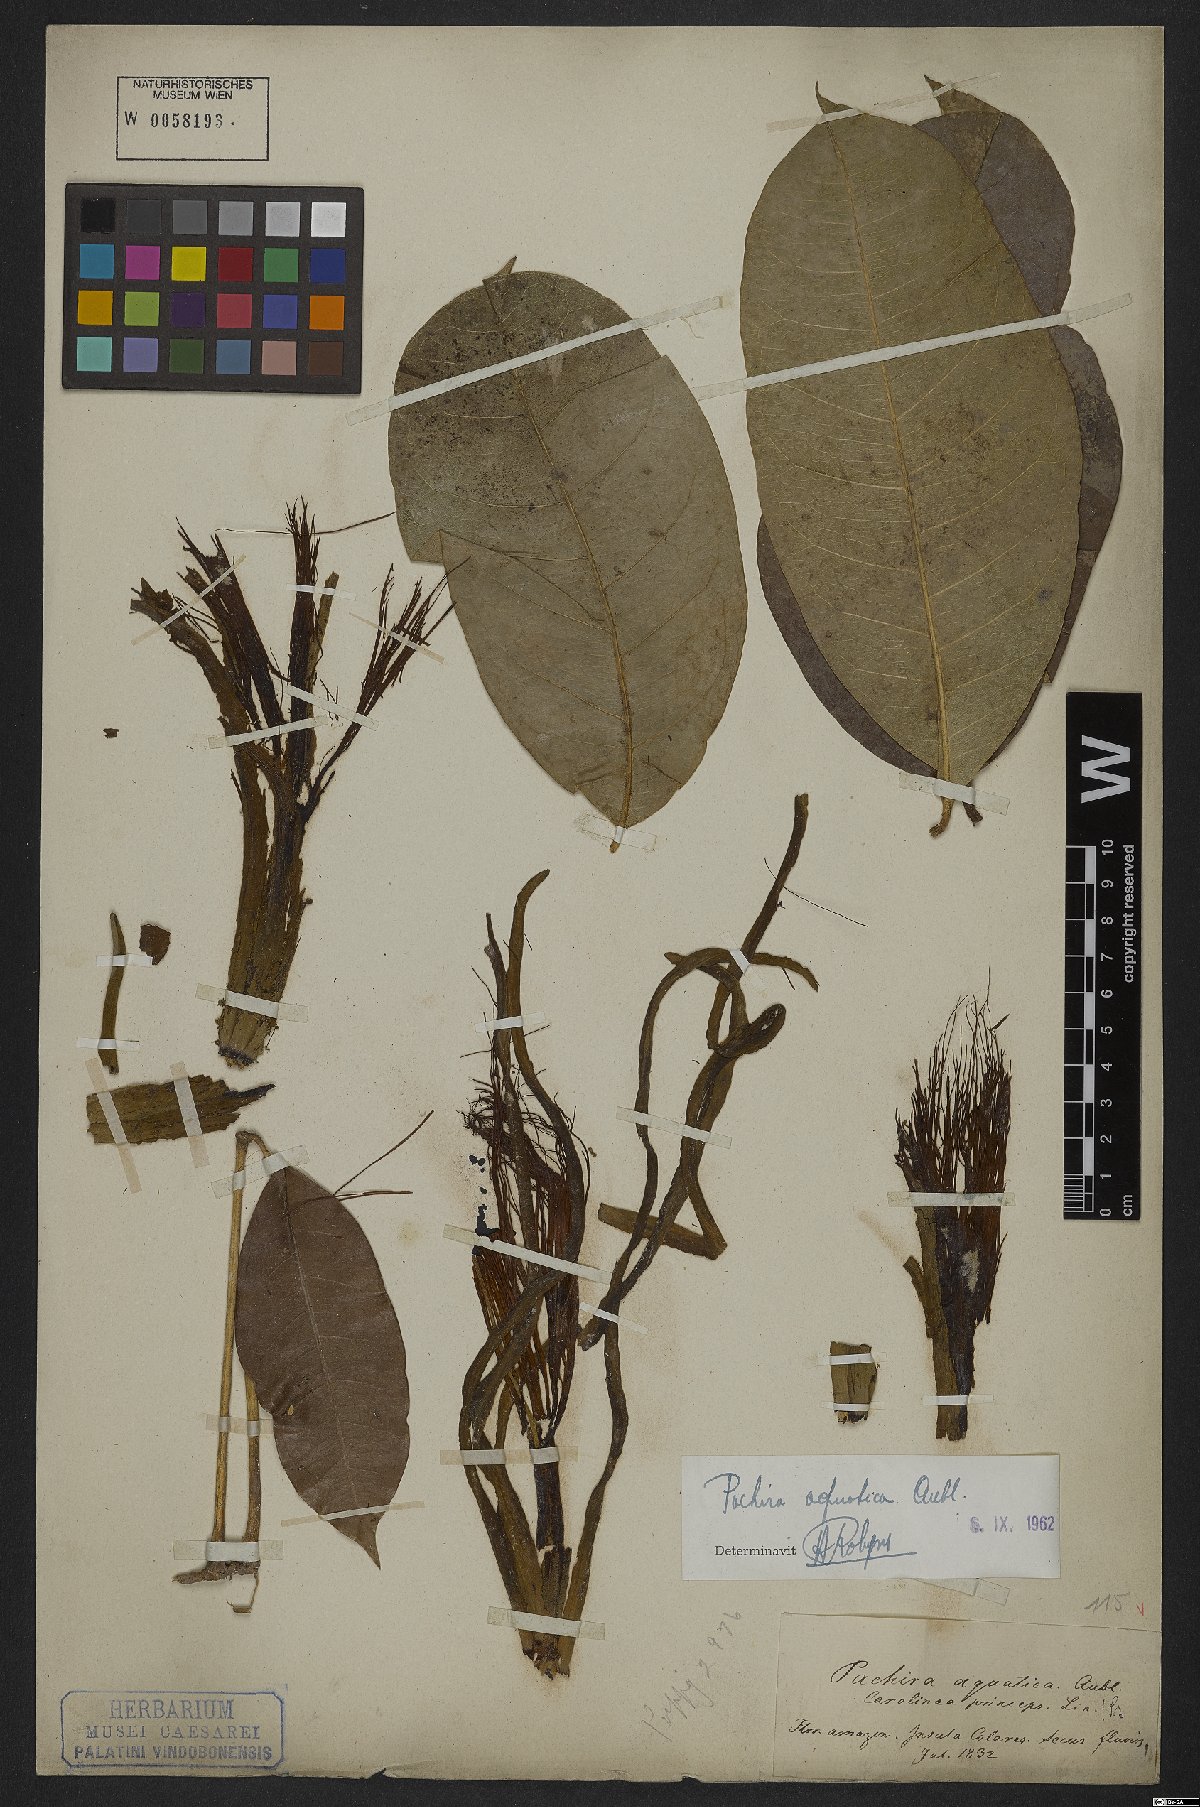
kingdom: Plantae
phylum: Tracheophyta
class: Magnoliopsida
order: Malvales
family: Malvaceae
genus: Pachira
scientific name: Pachira aquatica
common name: Provision-tree
